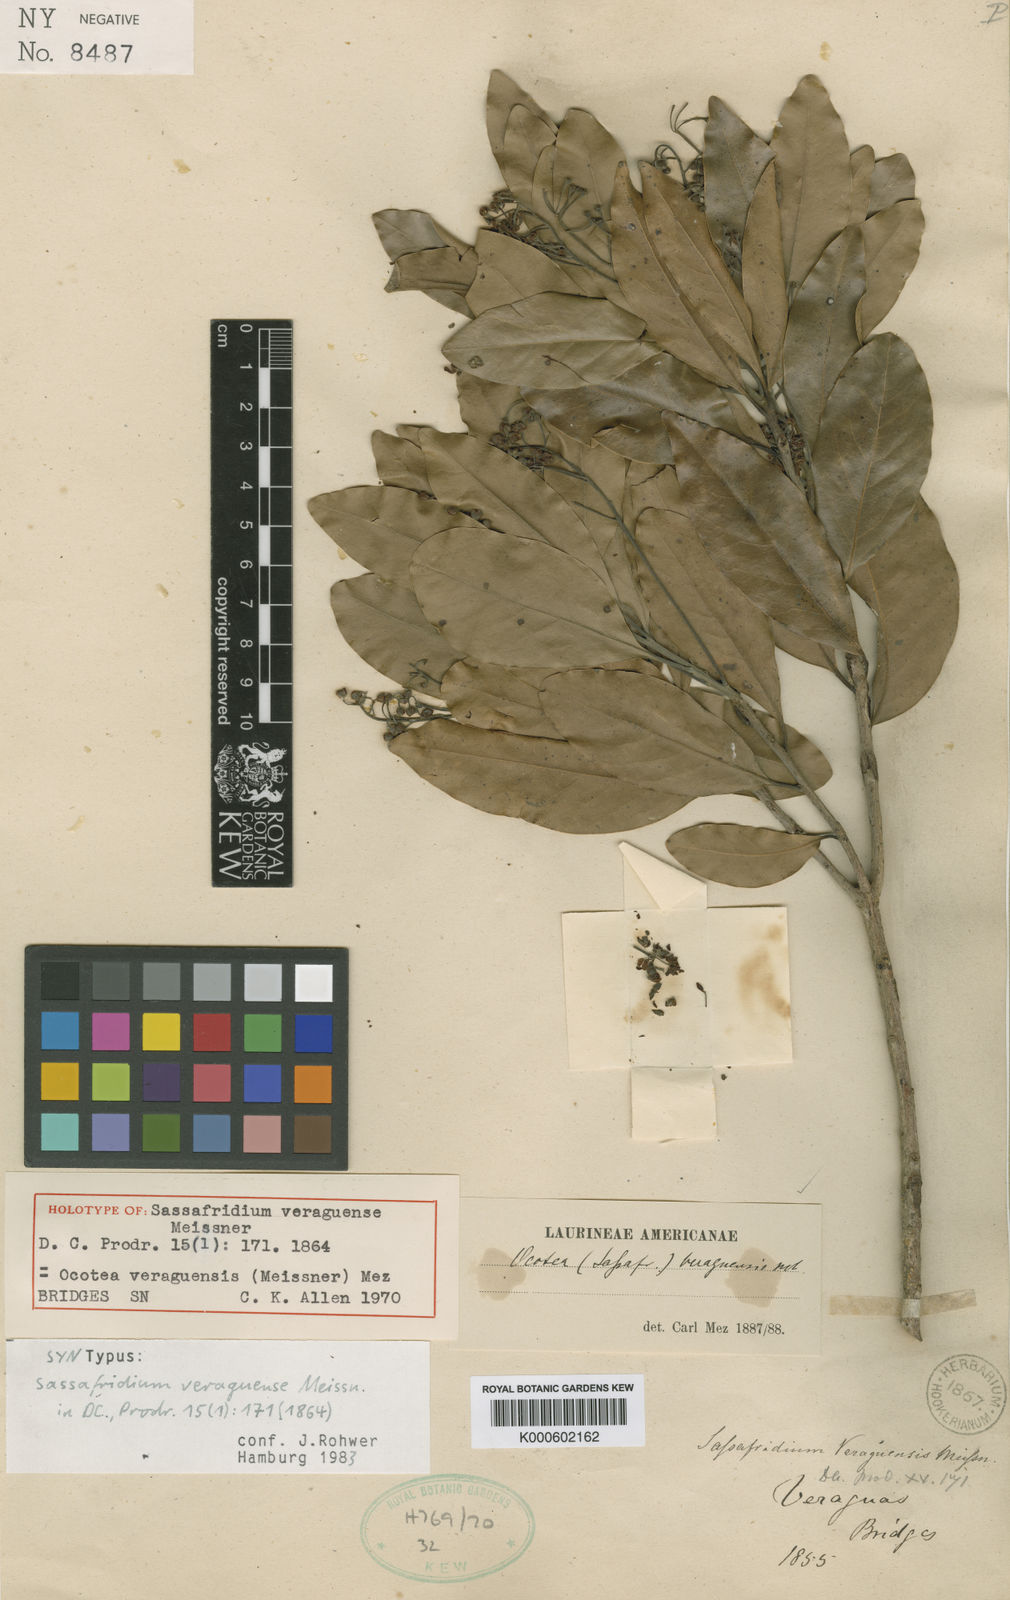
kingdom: Plantae
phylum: Tracheophyta
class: Magnoliopsida
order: Laurales
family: Lauraceae
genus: Mespilodaphne
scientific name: Mespilodaphne veraguensis
